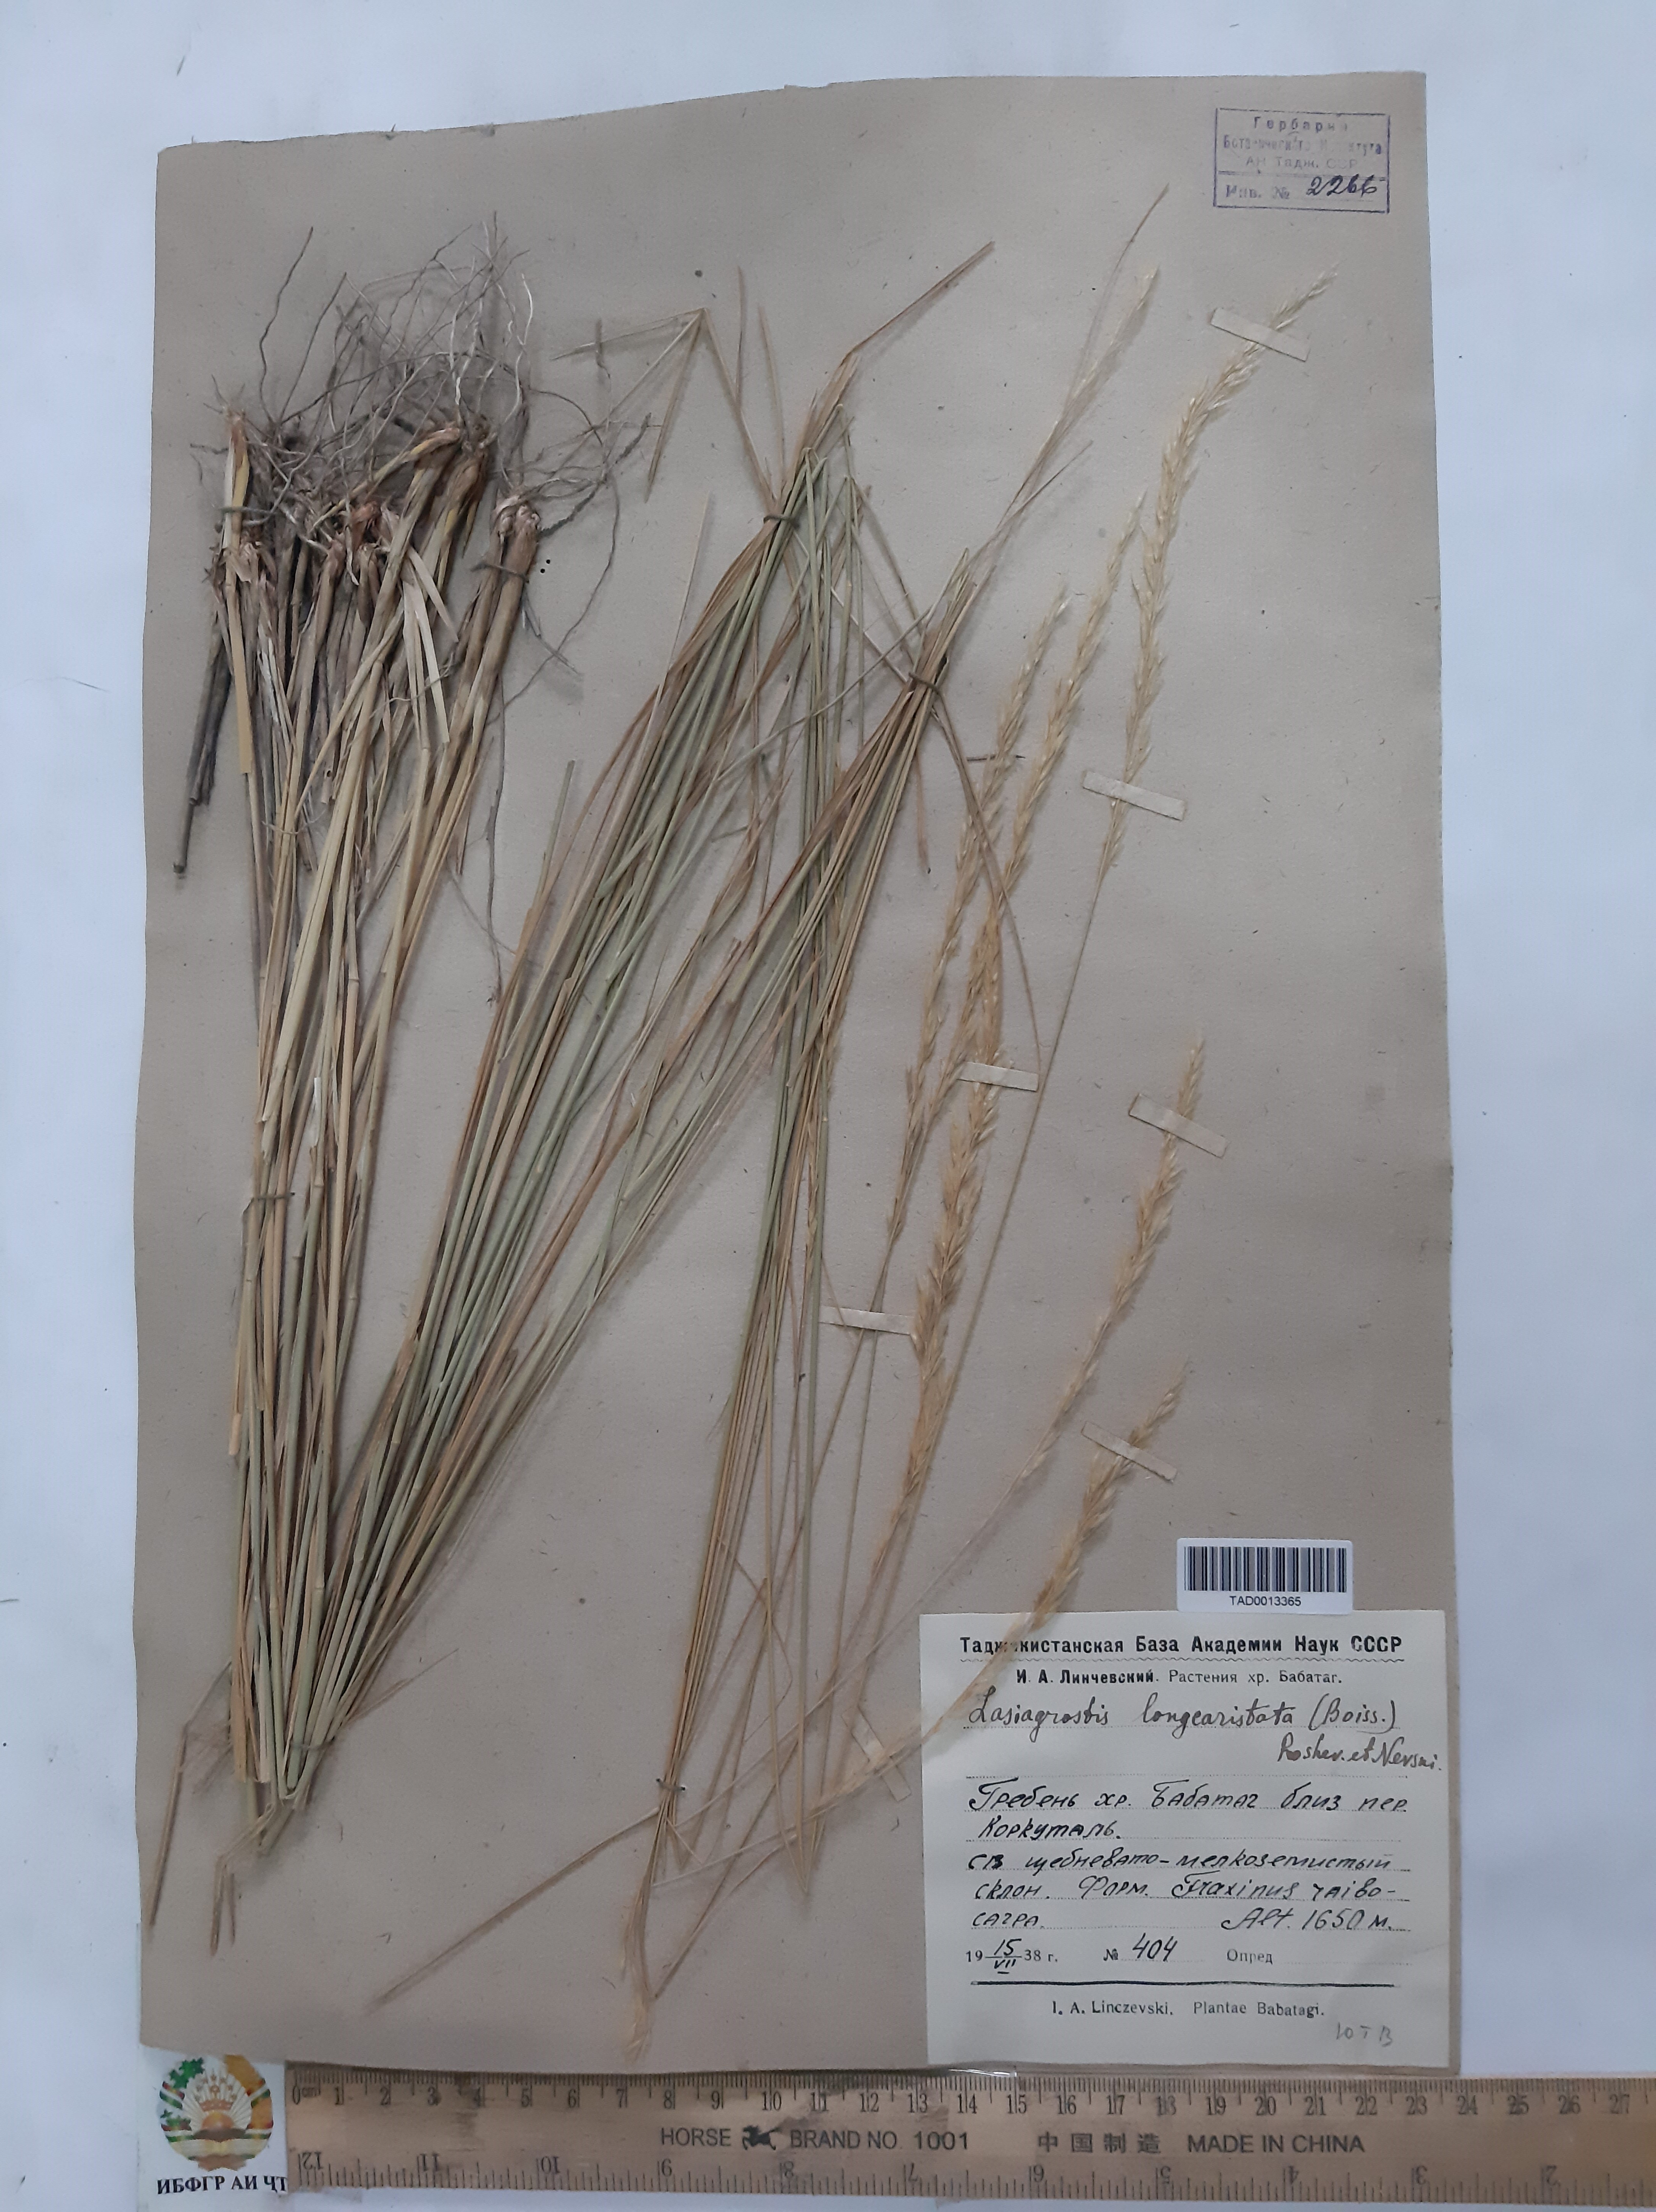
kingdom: Plantae
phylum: Tracheophyta
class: Liliopsida
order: Poales
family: Poaceae
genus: Achnatherum
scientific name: Achnatherum turcomanicum
